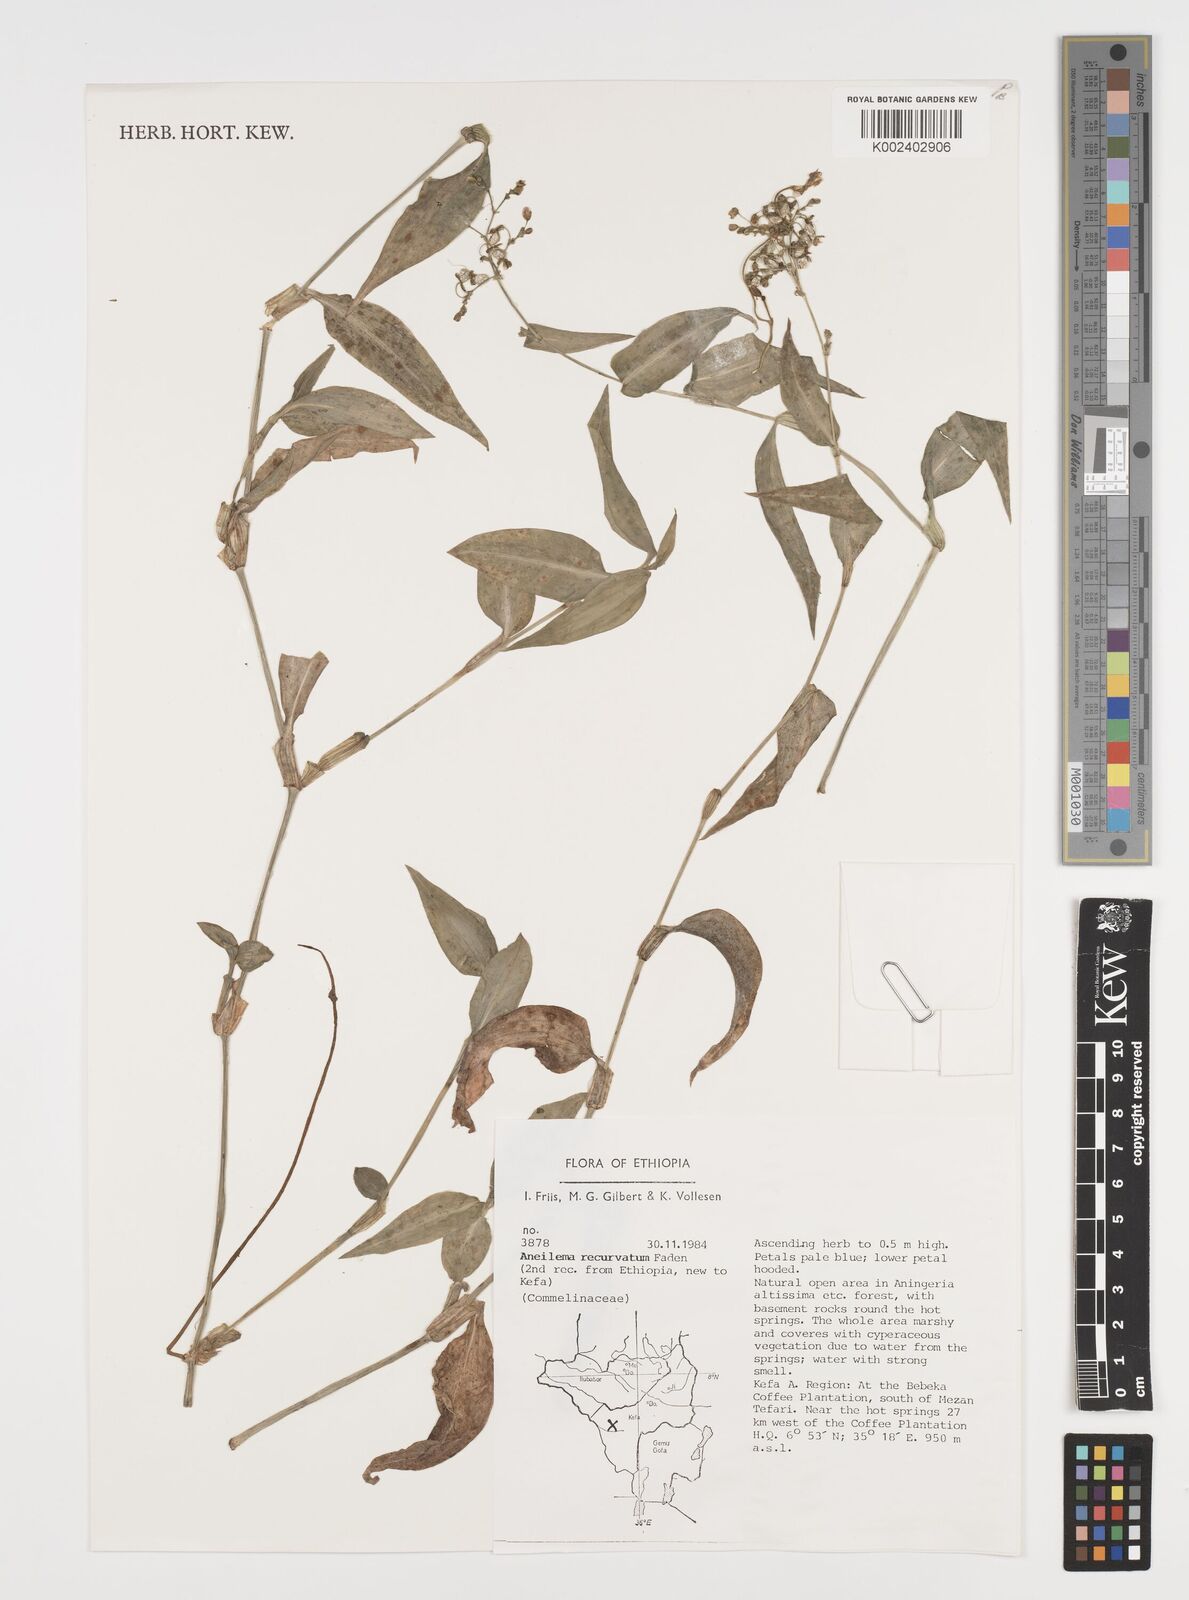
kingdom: Plantae
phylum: Tracheophyta
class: Liliopsida
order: Commelinales
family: Commelinaceae
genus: Aneilema
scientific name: Aneilema recurvatum
